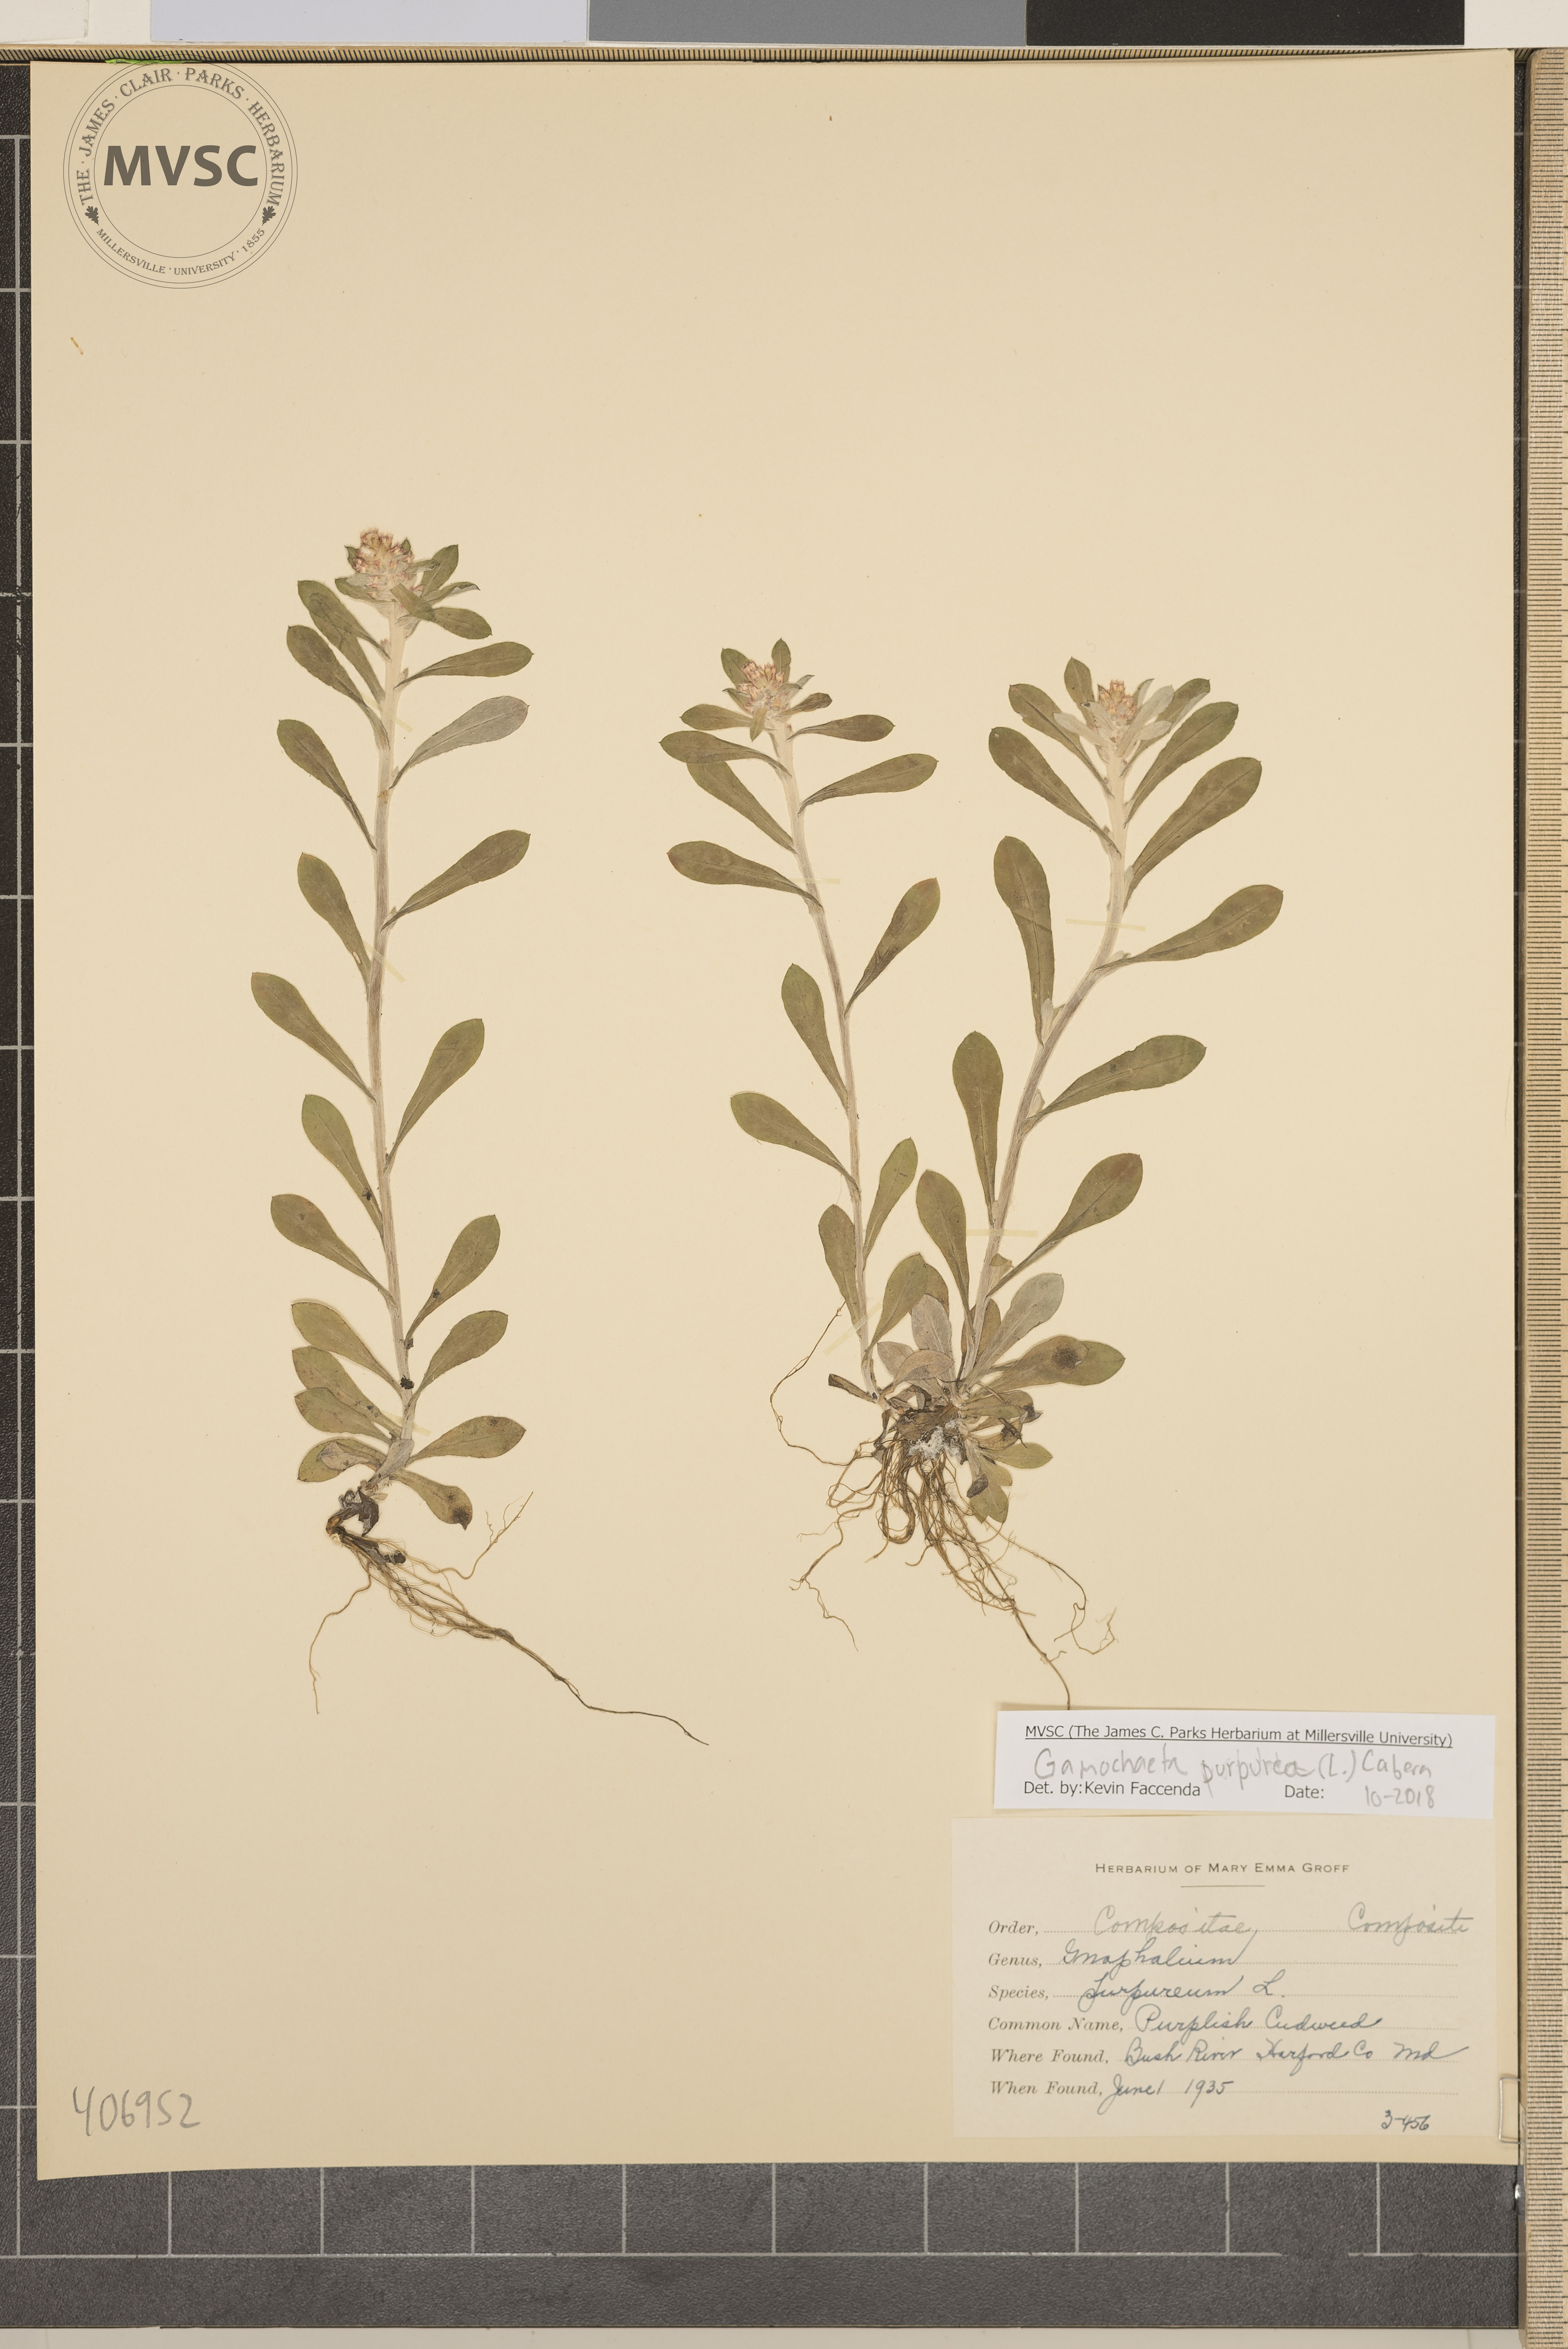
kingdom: Plantae
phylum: Tracheophyta
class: Magnoliopsida
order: Asterales
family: Asteraceae
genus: Gamochaeta
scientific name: Gamochaeta purpurea
